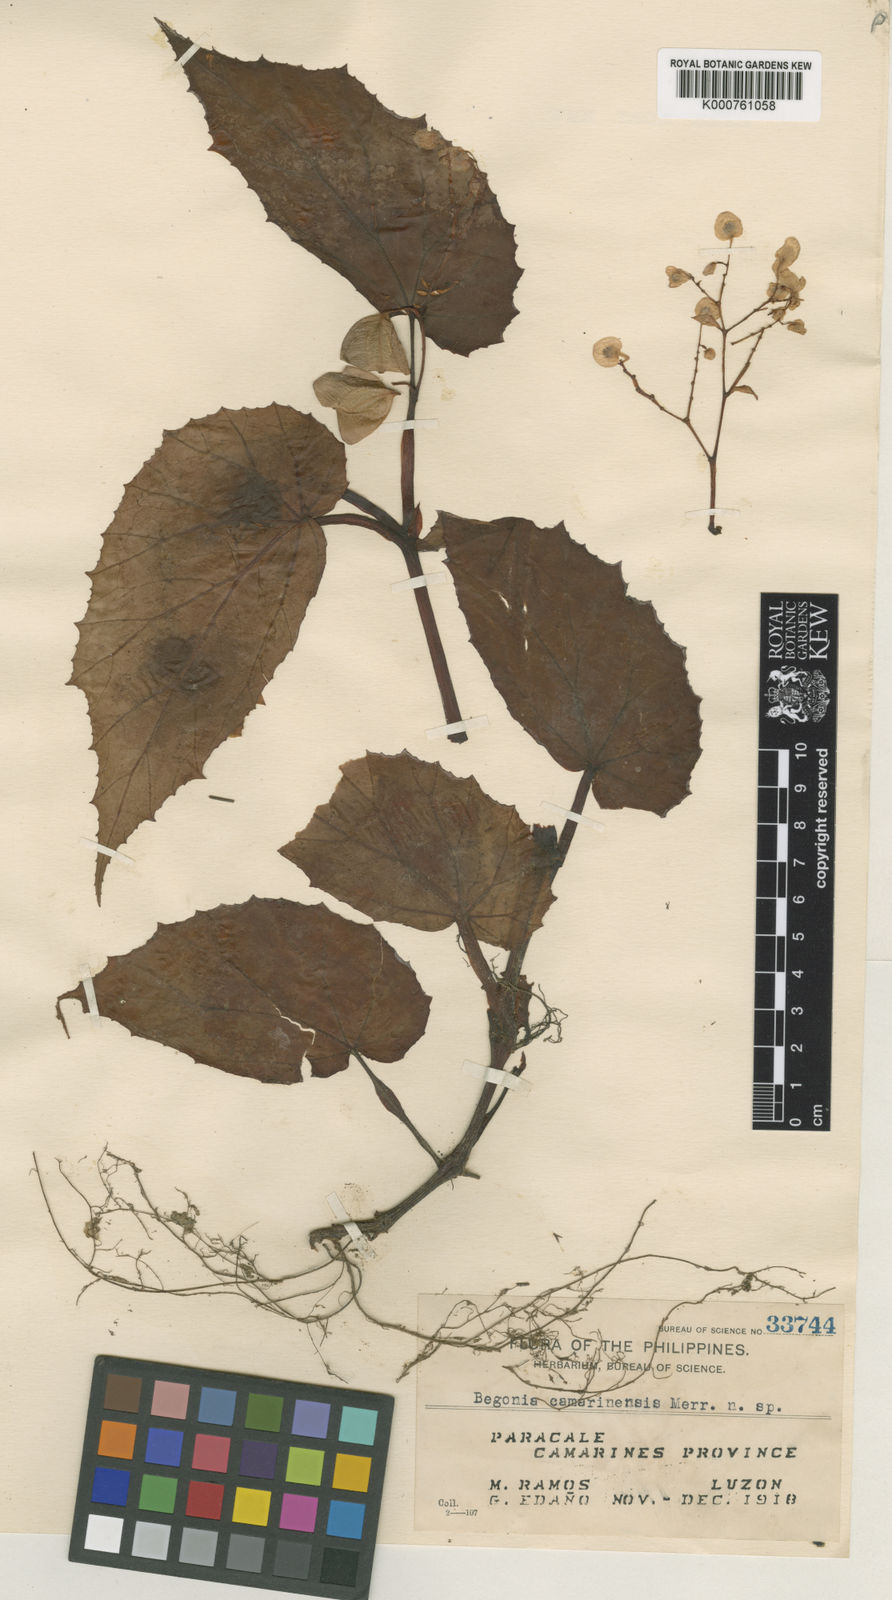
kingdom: Plantae
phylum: Tracheophyta
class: Magnoliopsida
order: Cucurbitales
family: Begoniaceae
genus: Begonia
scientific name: Begonia
